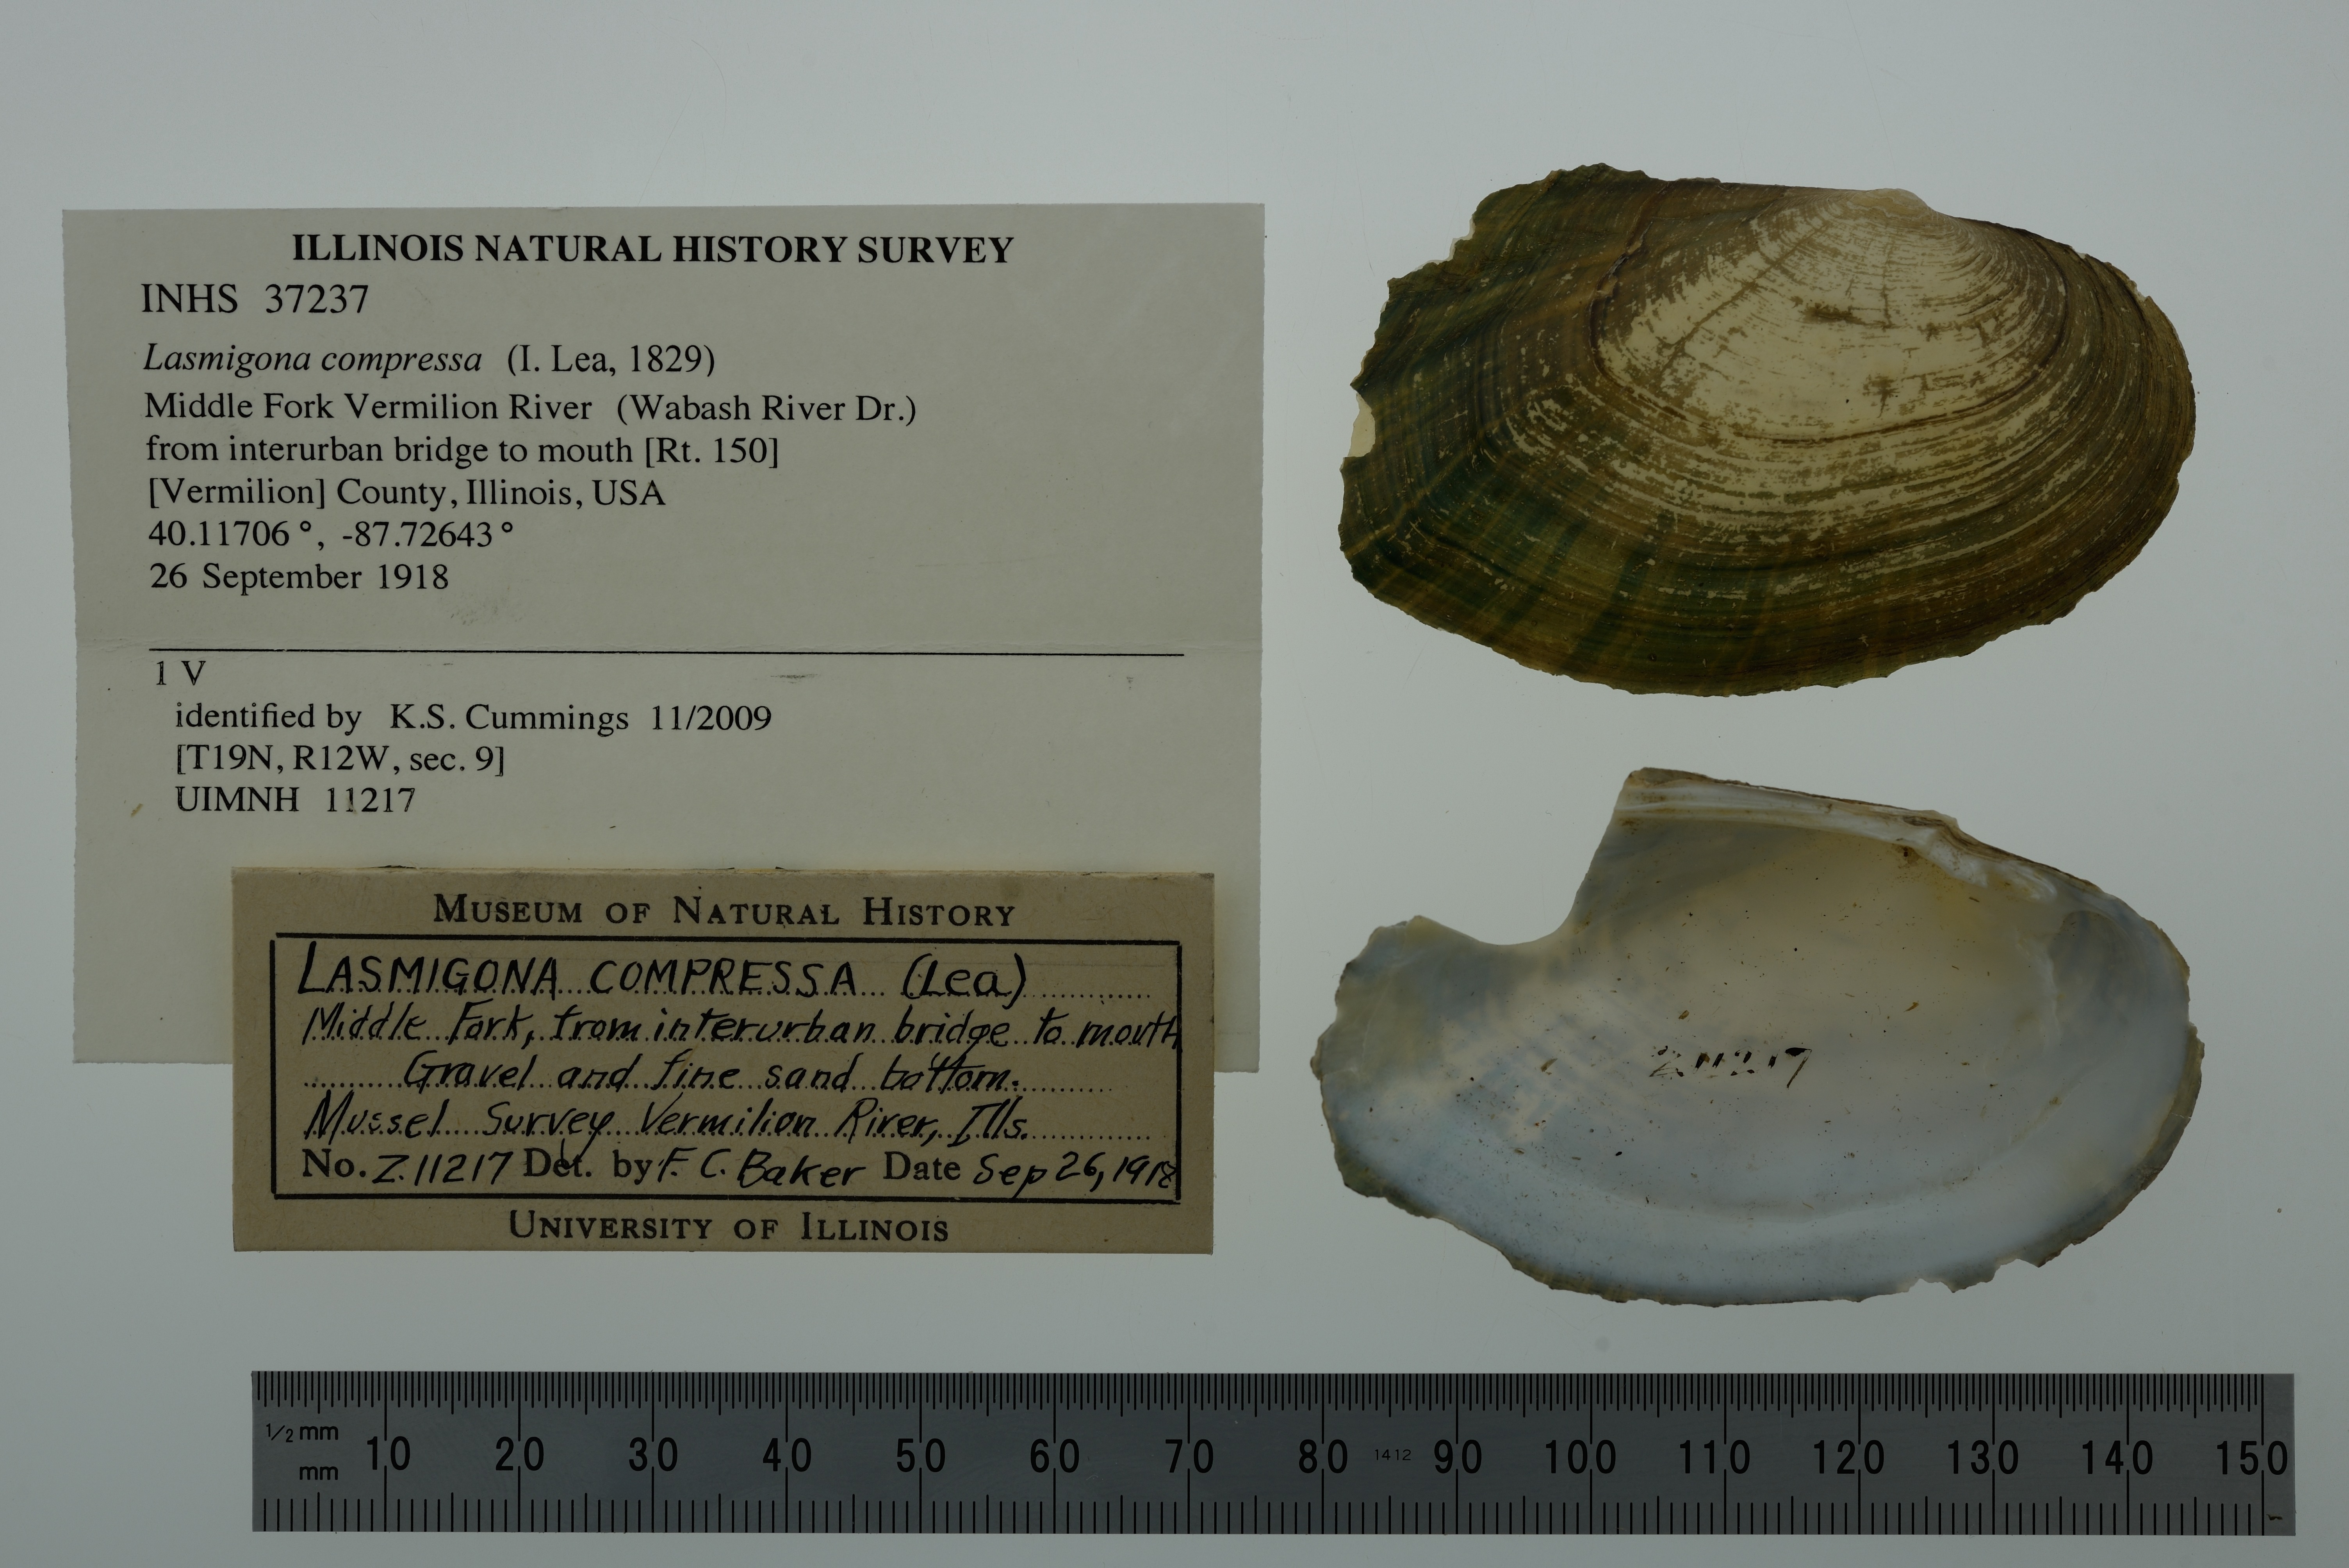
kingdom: Animalia
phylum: Mollusca
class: Bivalvia
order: Unionida
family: Unionidae
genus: Lasmigona
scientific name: Lasmigona compressa
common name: Creek heelsplitter
